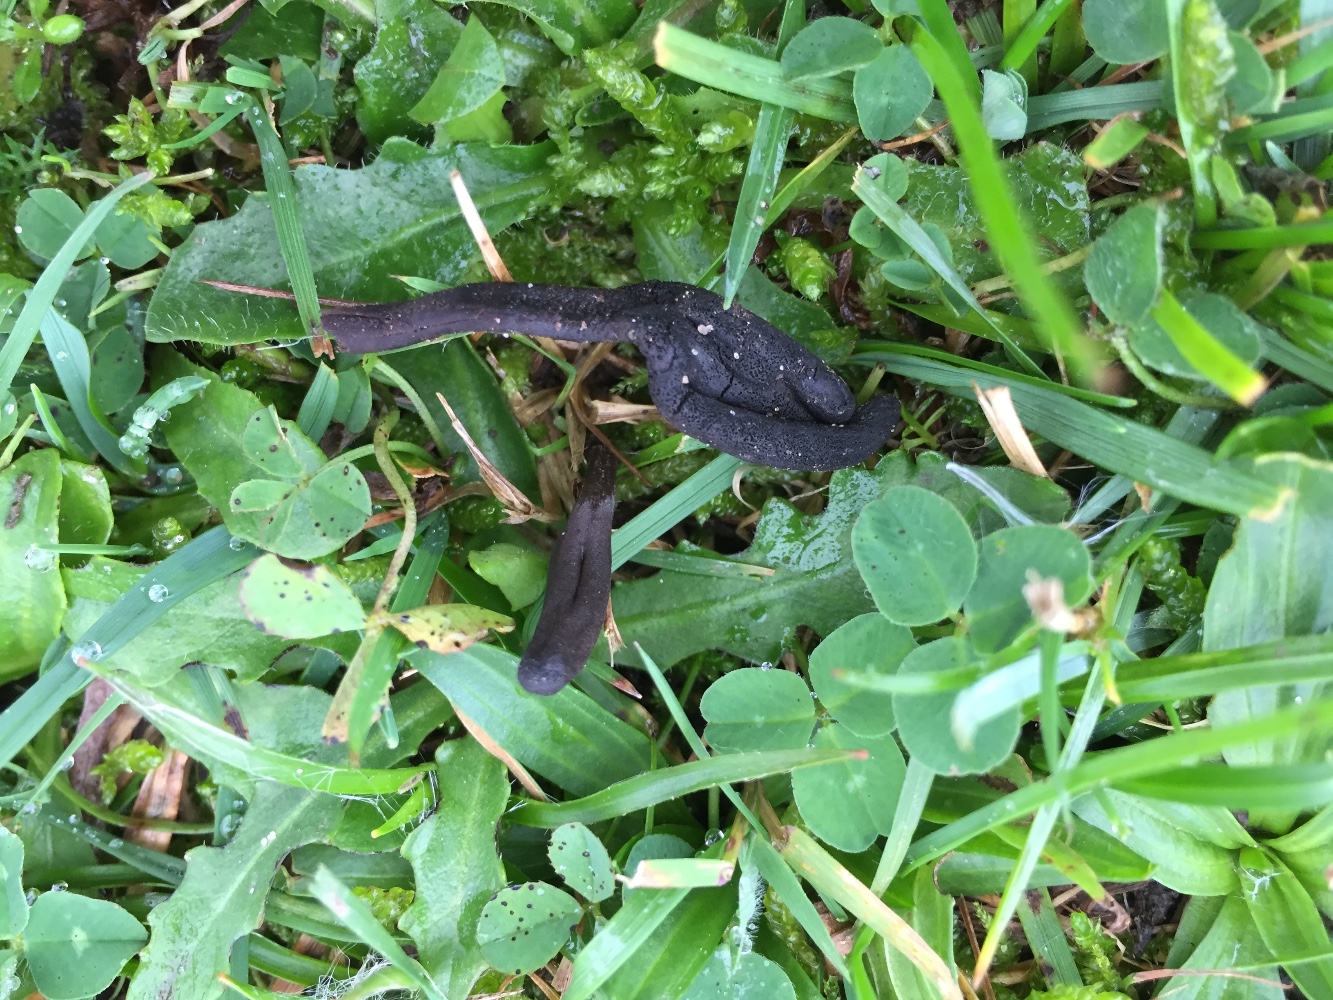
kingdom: Fungi
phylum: Ascomycota
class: Geoglossomycetes
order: Geoglossales
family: Geoglossaceae
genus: Geoglossum
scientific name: Geoglossum
